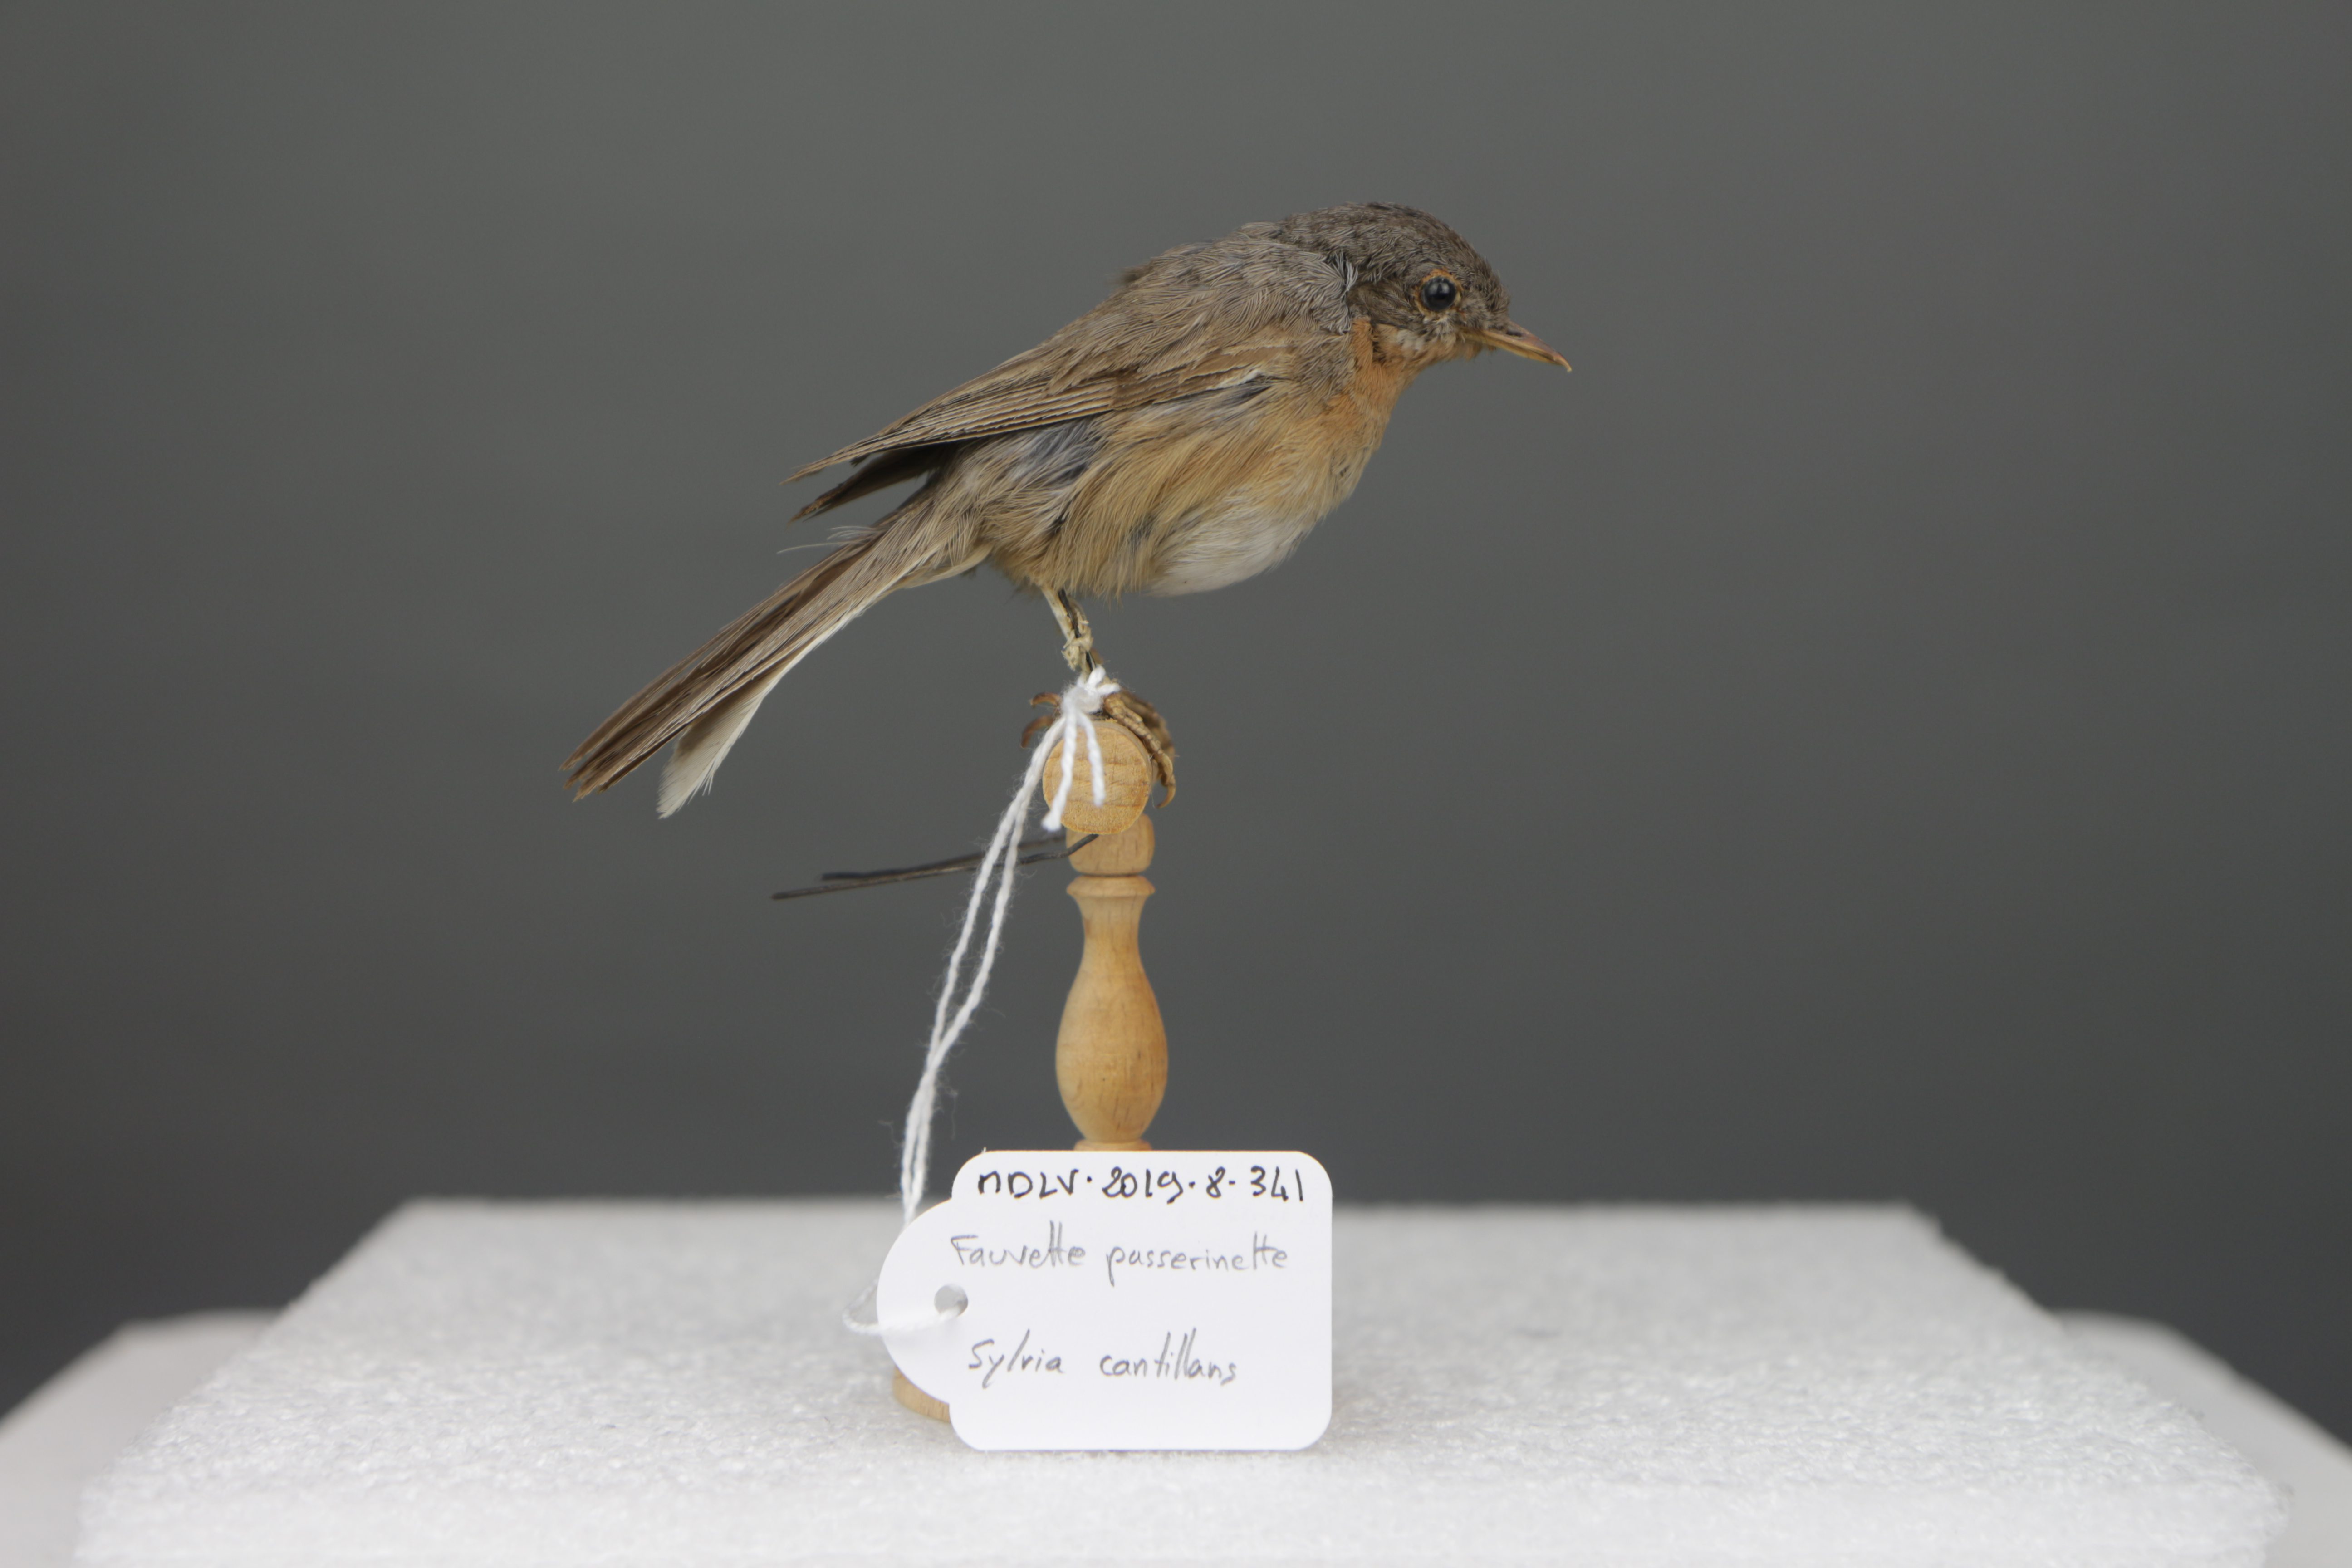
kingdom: Animalia
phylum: Chordata
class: Aves
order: Passeriformes
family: Sylviidae
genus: Sylvia
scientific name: Sylvia cantillans
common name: Subalpine warbler
